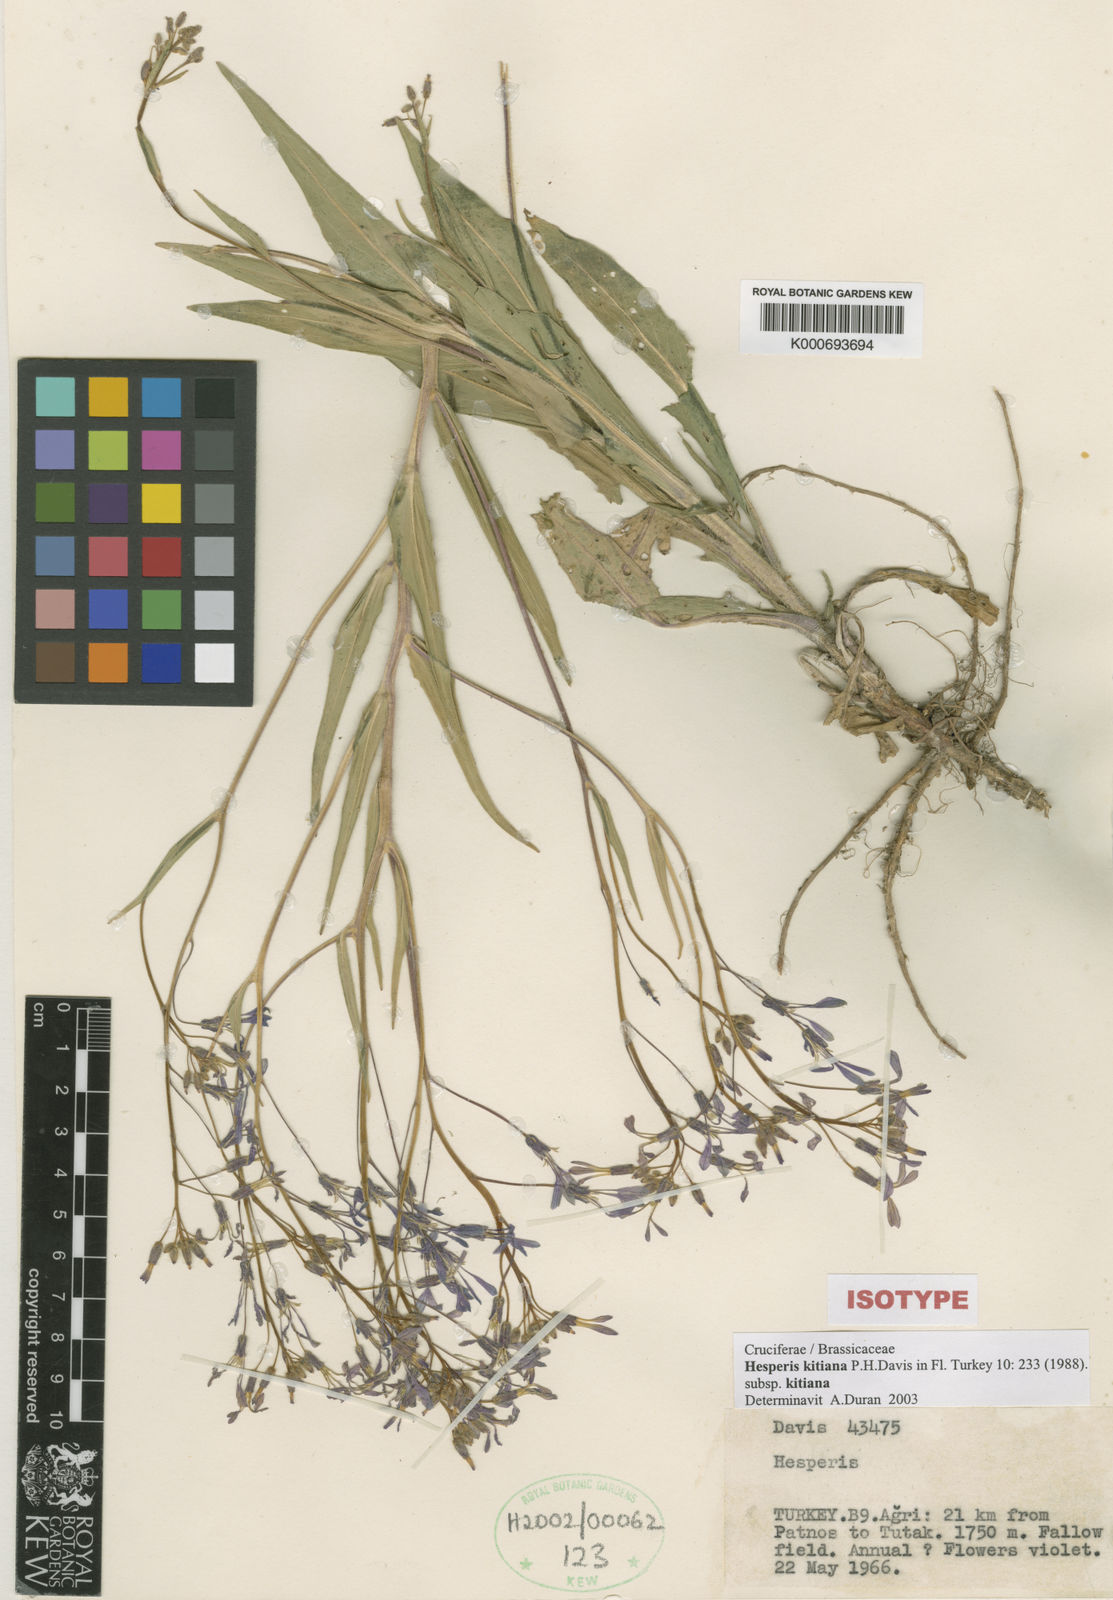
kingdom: Plantae
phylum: Tracheophyta
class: Magnoliopsida
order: Brassicales
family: Brassicaceae
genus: Hesperis
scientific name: Hesperis kitiana
